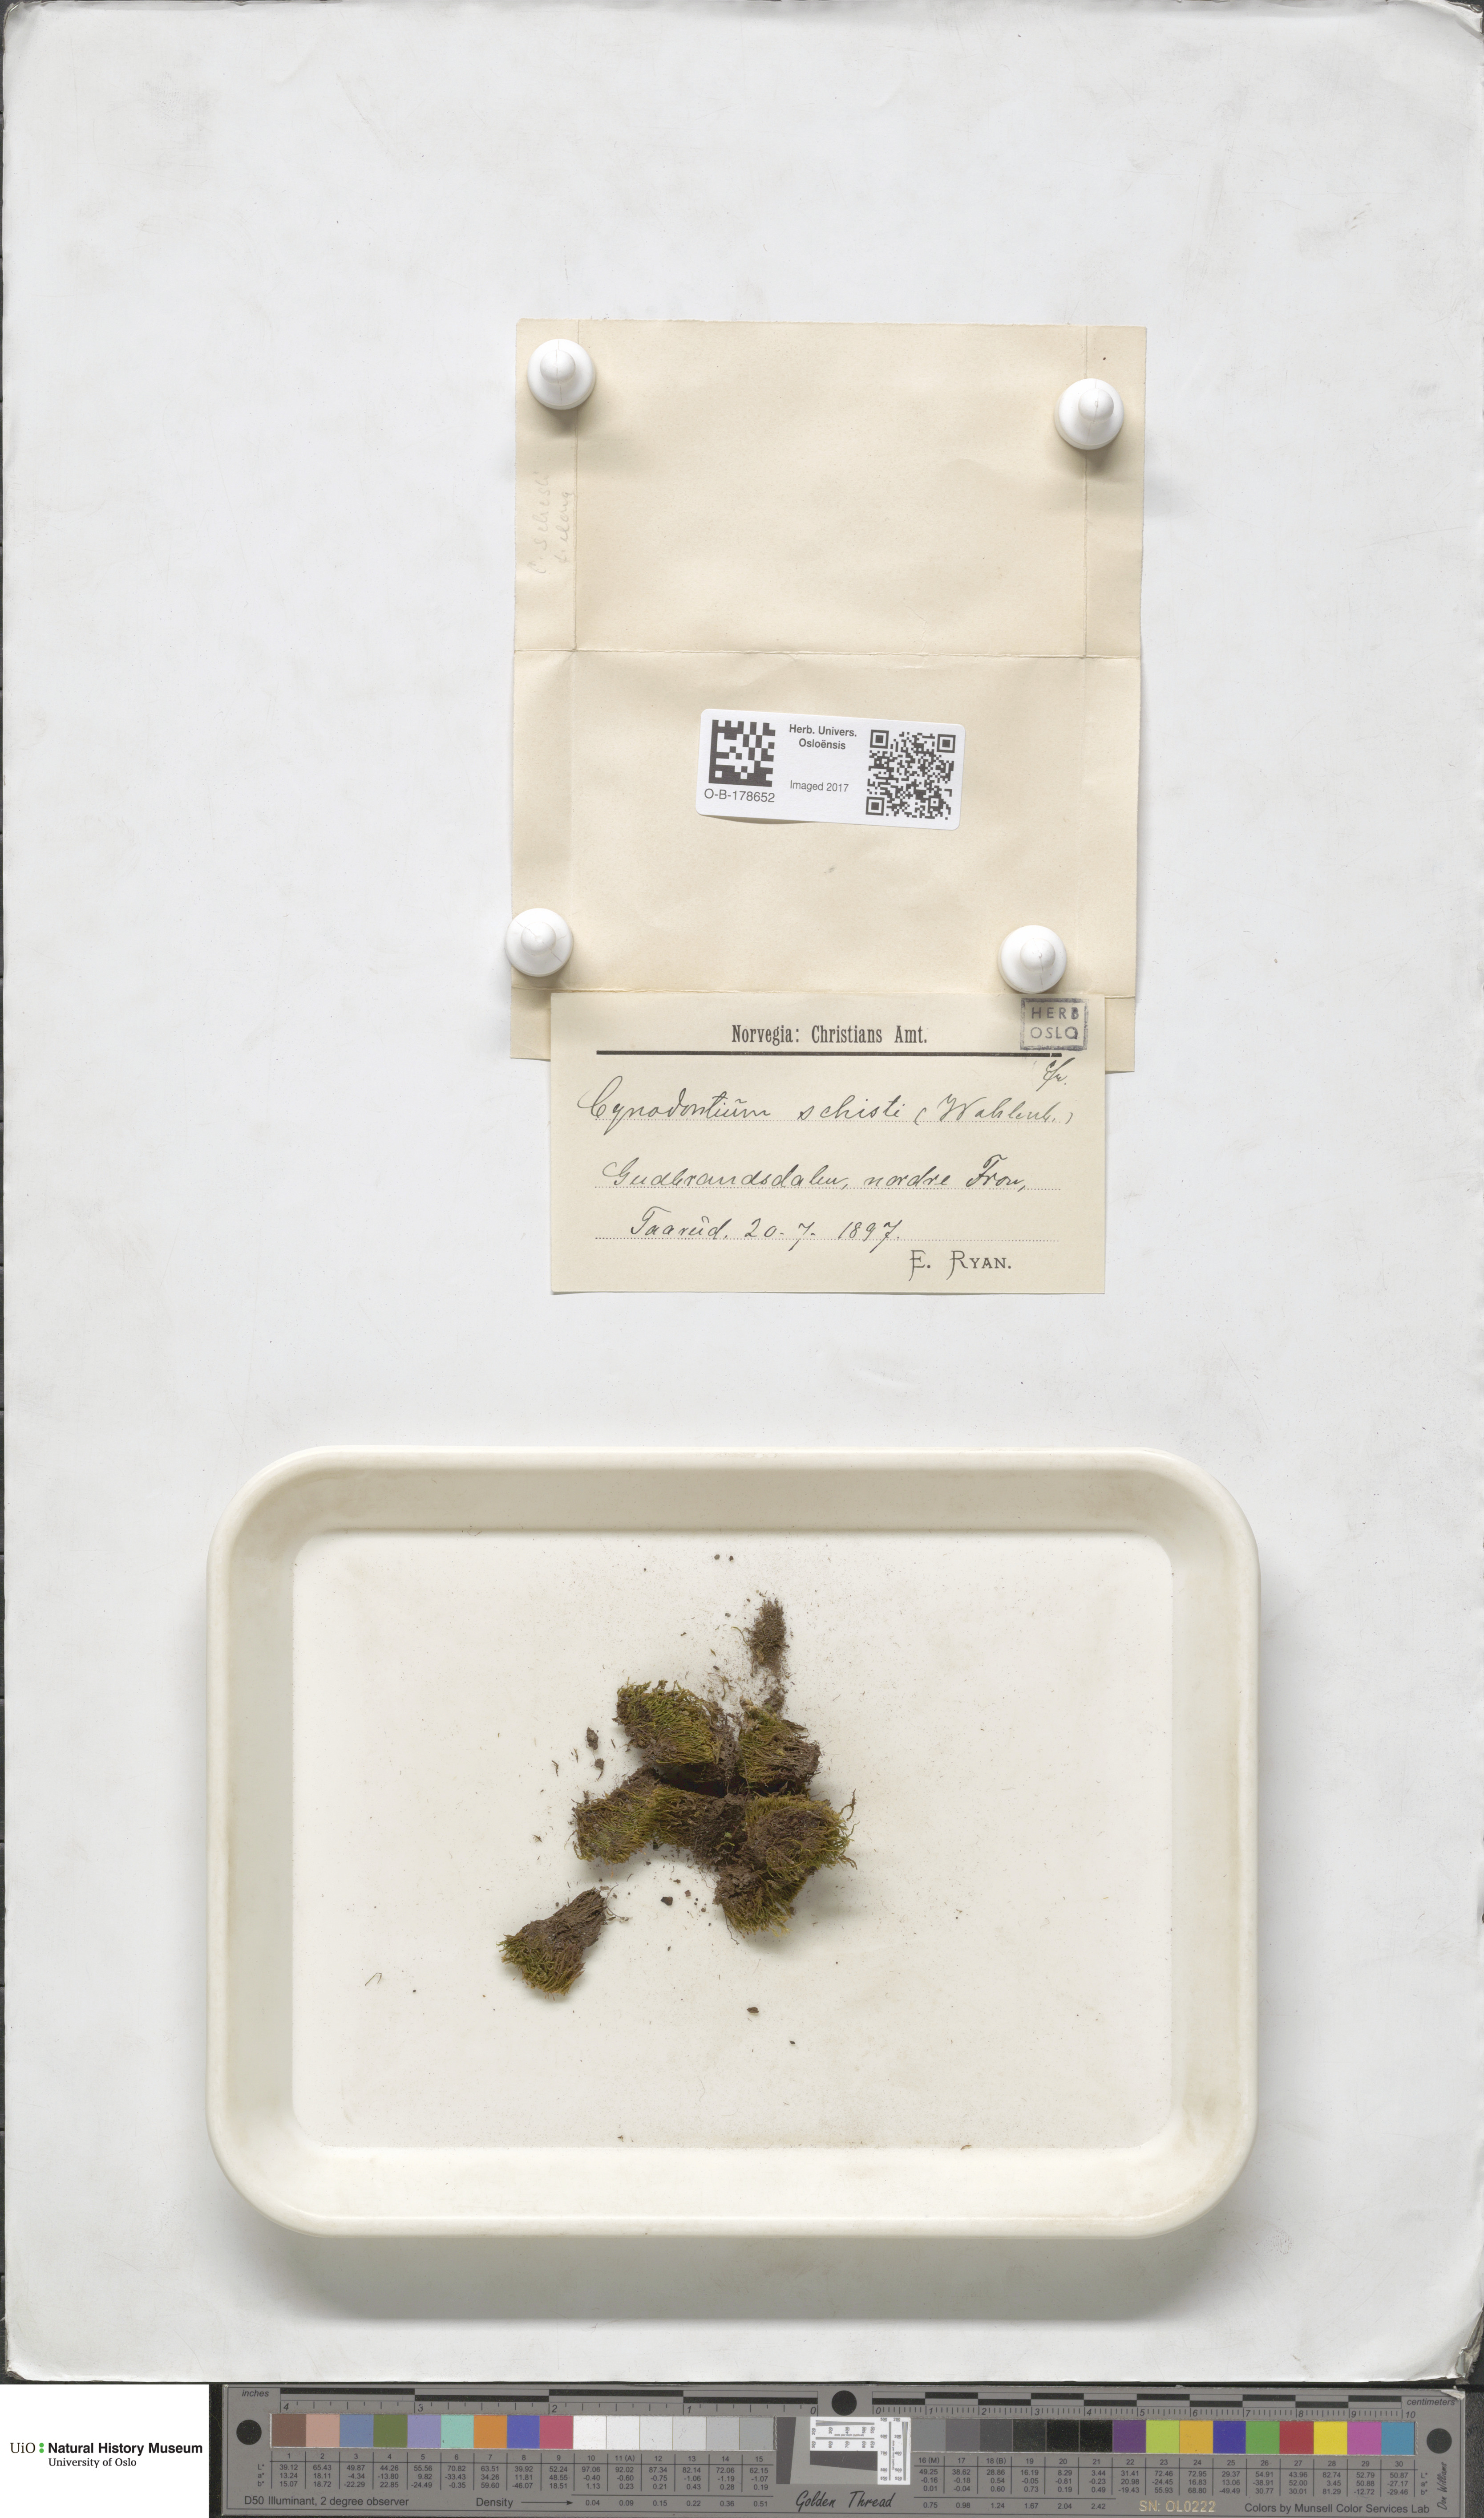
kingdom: Plantae
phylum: Bryophyta
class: Bryopsida
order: Dicranales
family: Rhabdoweisiaceae
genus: Cnestrum
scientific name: Cnestrum schisti
